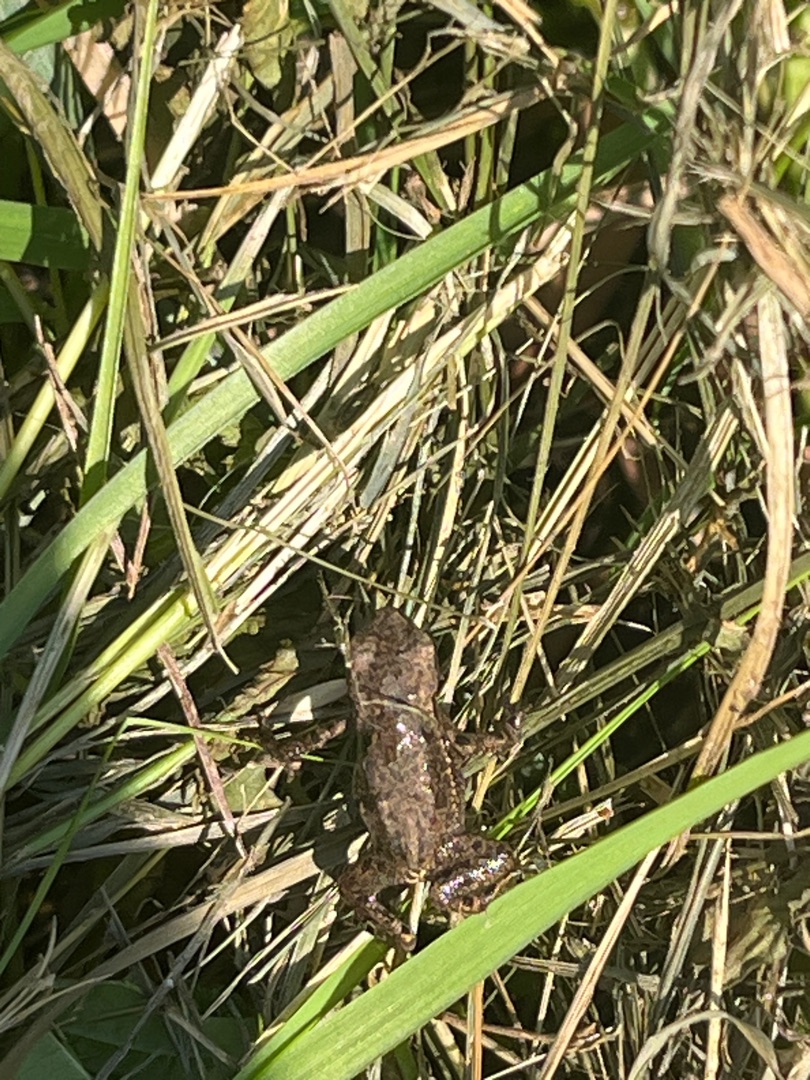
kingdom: Animalia
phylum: Chordata
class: Amphibia
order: Anura
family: Bufonidae
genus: Bufo
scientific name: Bufo bufo
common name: Skrubtudse
